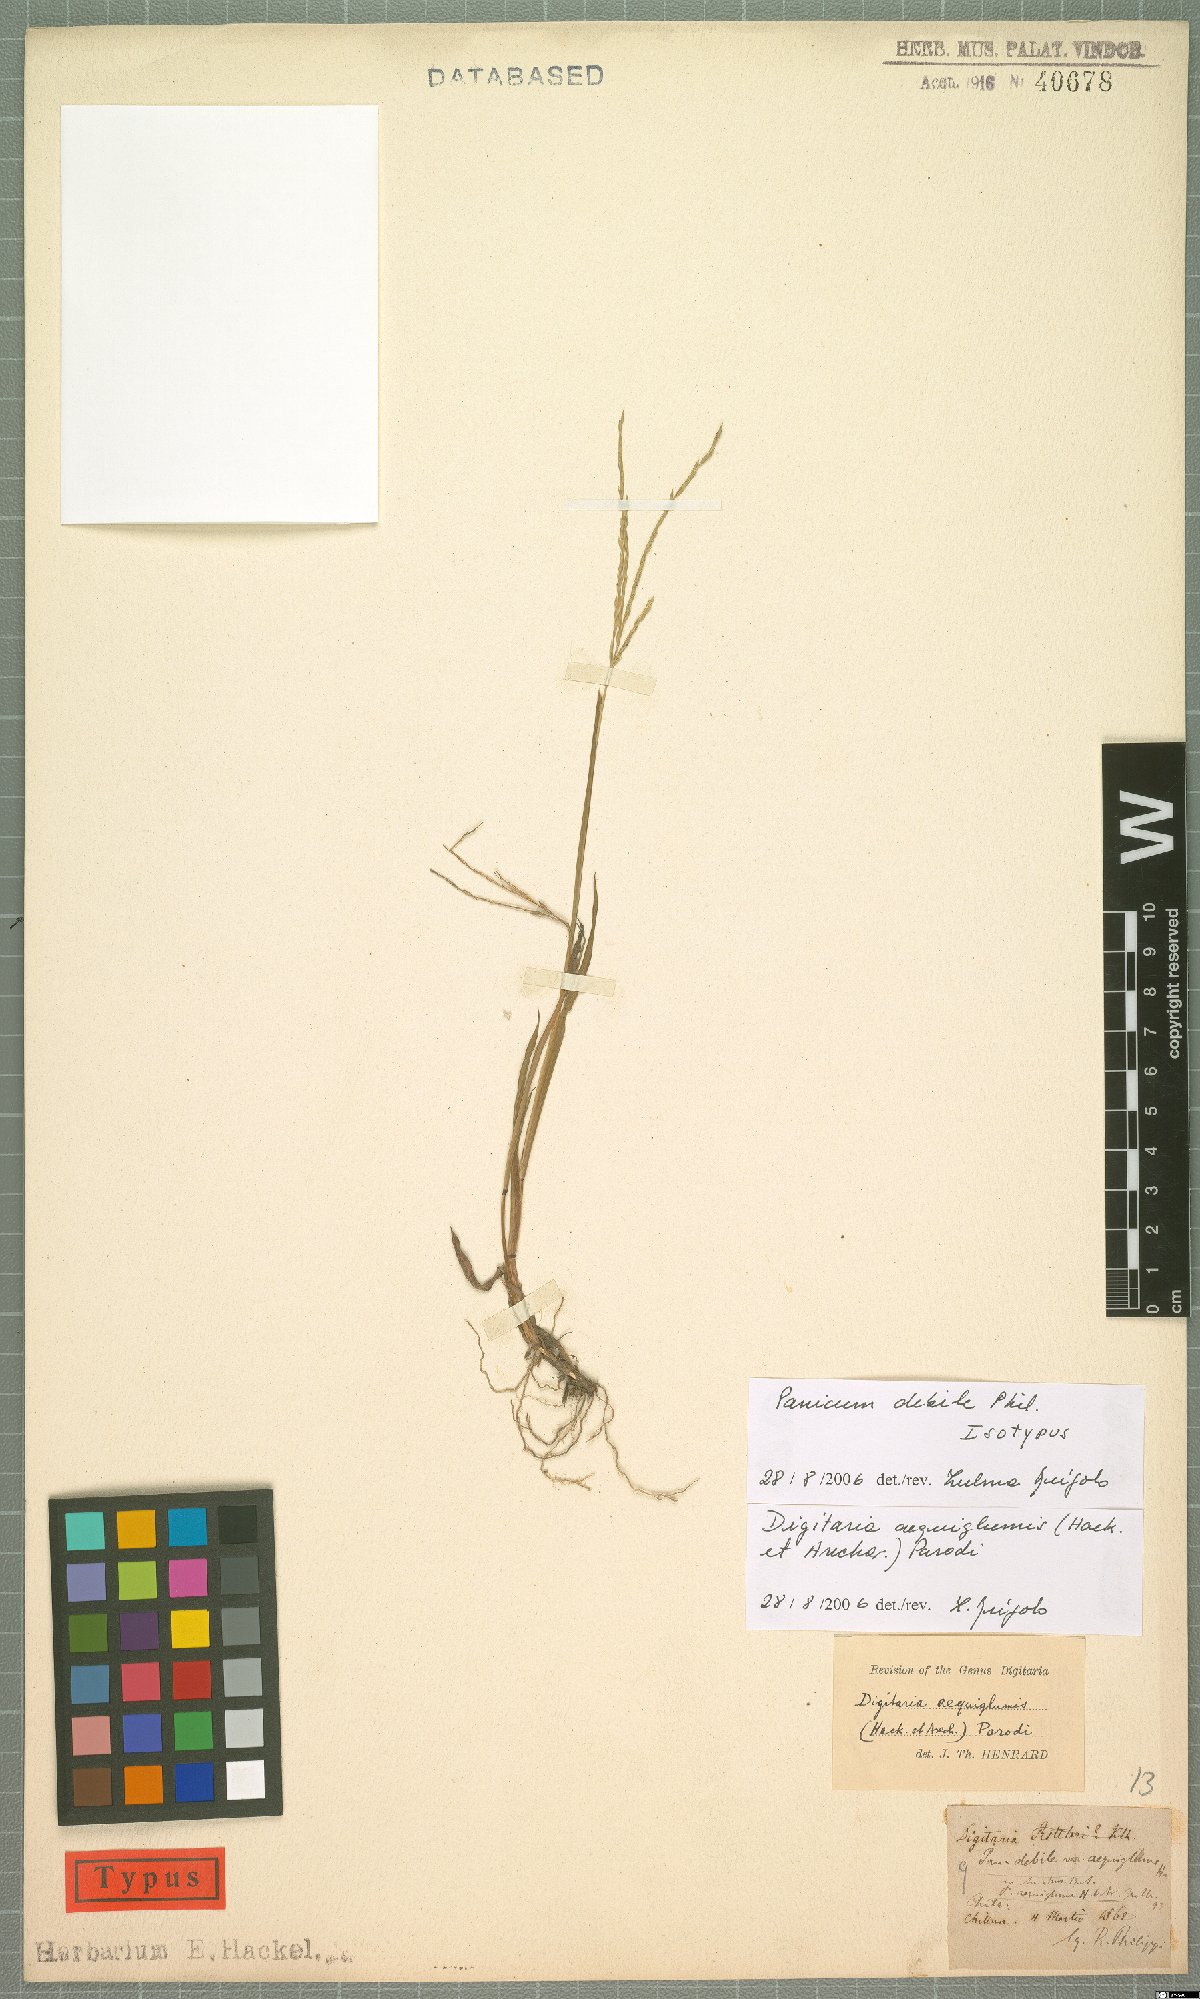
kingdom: Plantae
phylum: Tracheophyta
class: Liliopsida
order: Poales
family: Poaceae
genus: Digitaria
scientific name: Digitaria aequiglumis
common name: Argentinian crabgrass
